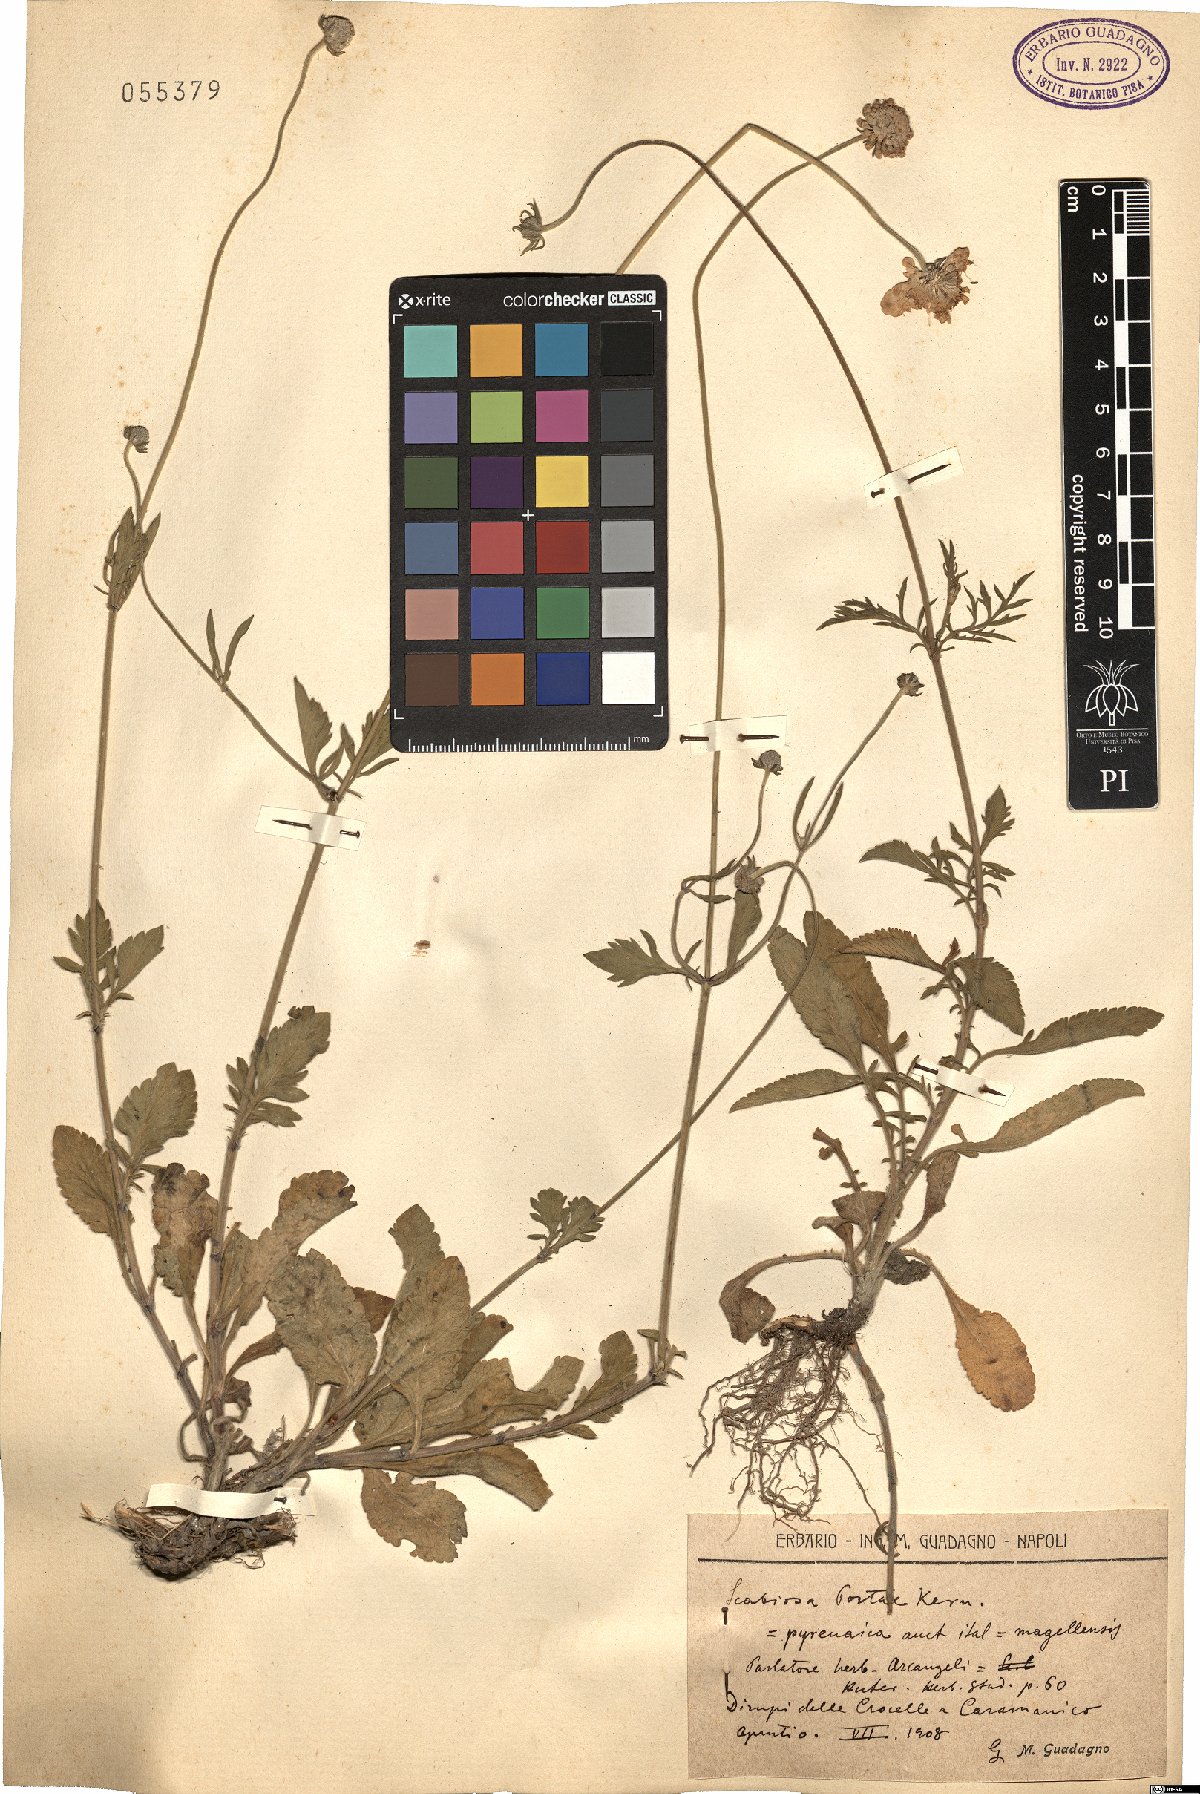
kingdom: Plantae
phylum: Tracheophyta
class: Magnoliopsida
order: Dipsacales
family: Caprifoliaceae
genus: Scabiosa
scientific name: Scabiosa taygetea
